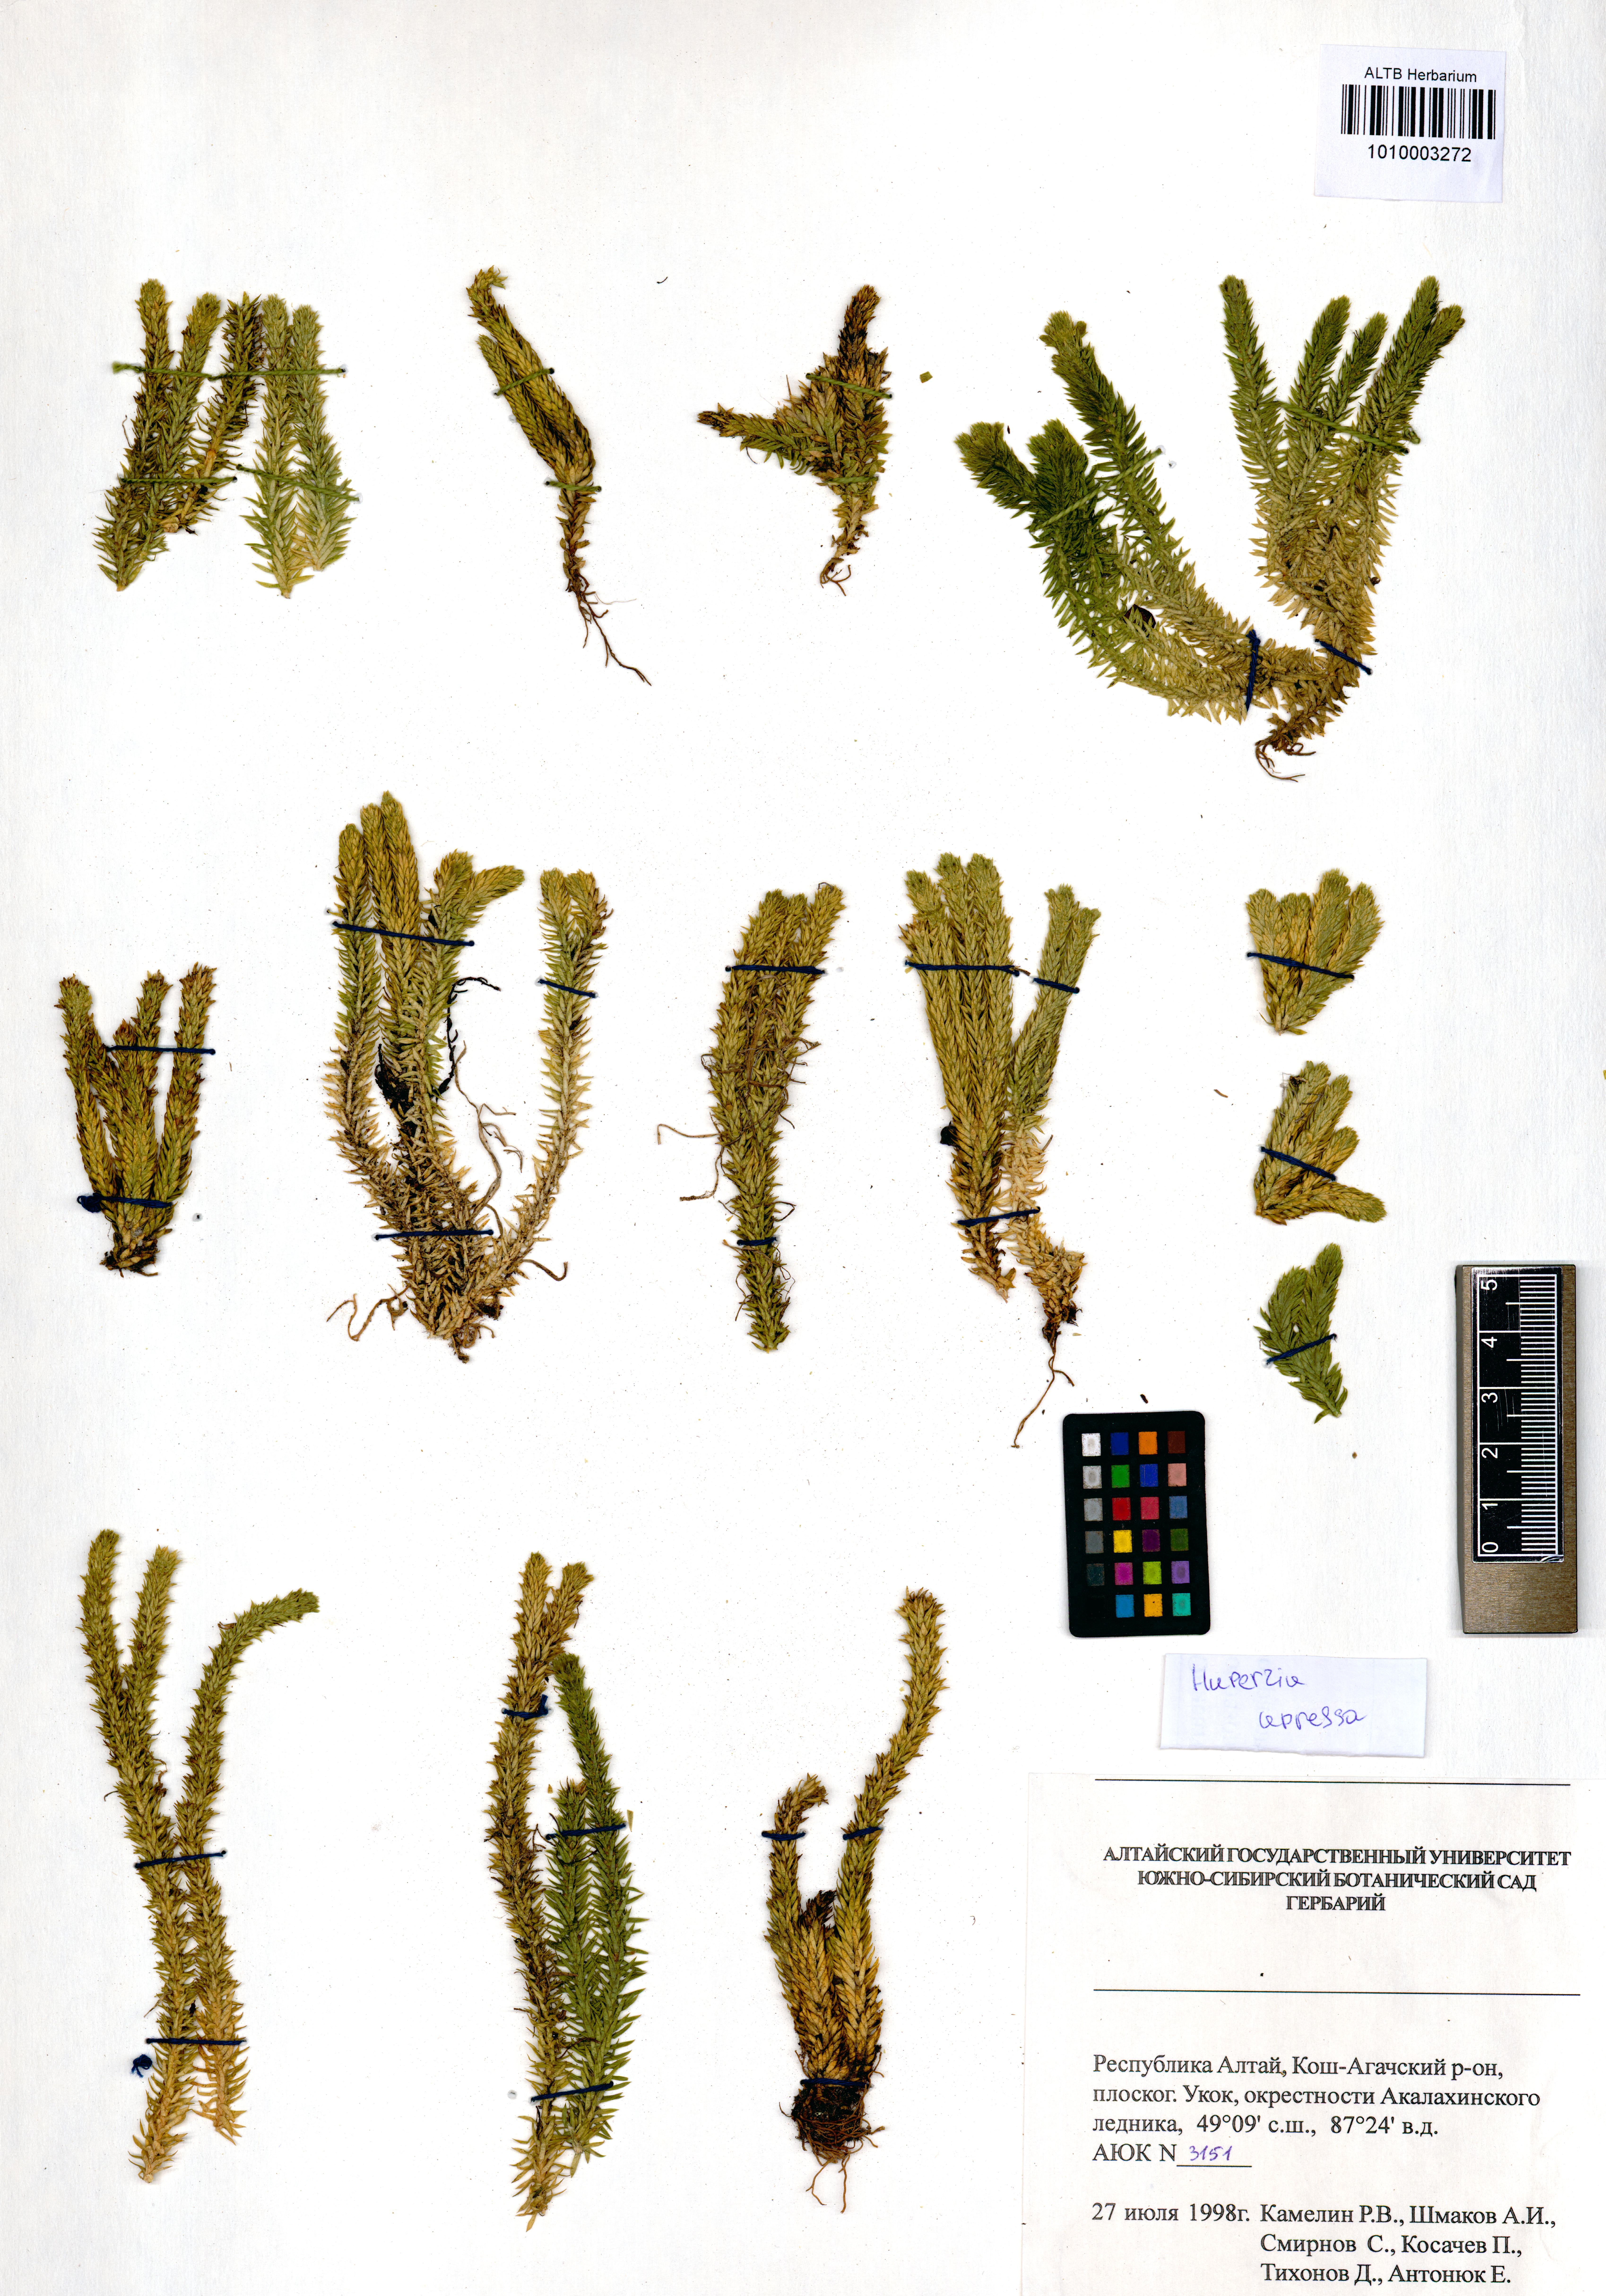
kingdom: Plantae
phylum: Tracheophyta
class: Lycopodiopsida
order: Lycopodiales
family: Lycopodiaceae
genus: Huperzia
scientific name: Huperzia selago
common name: Northern firmoss
